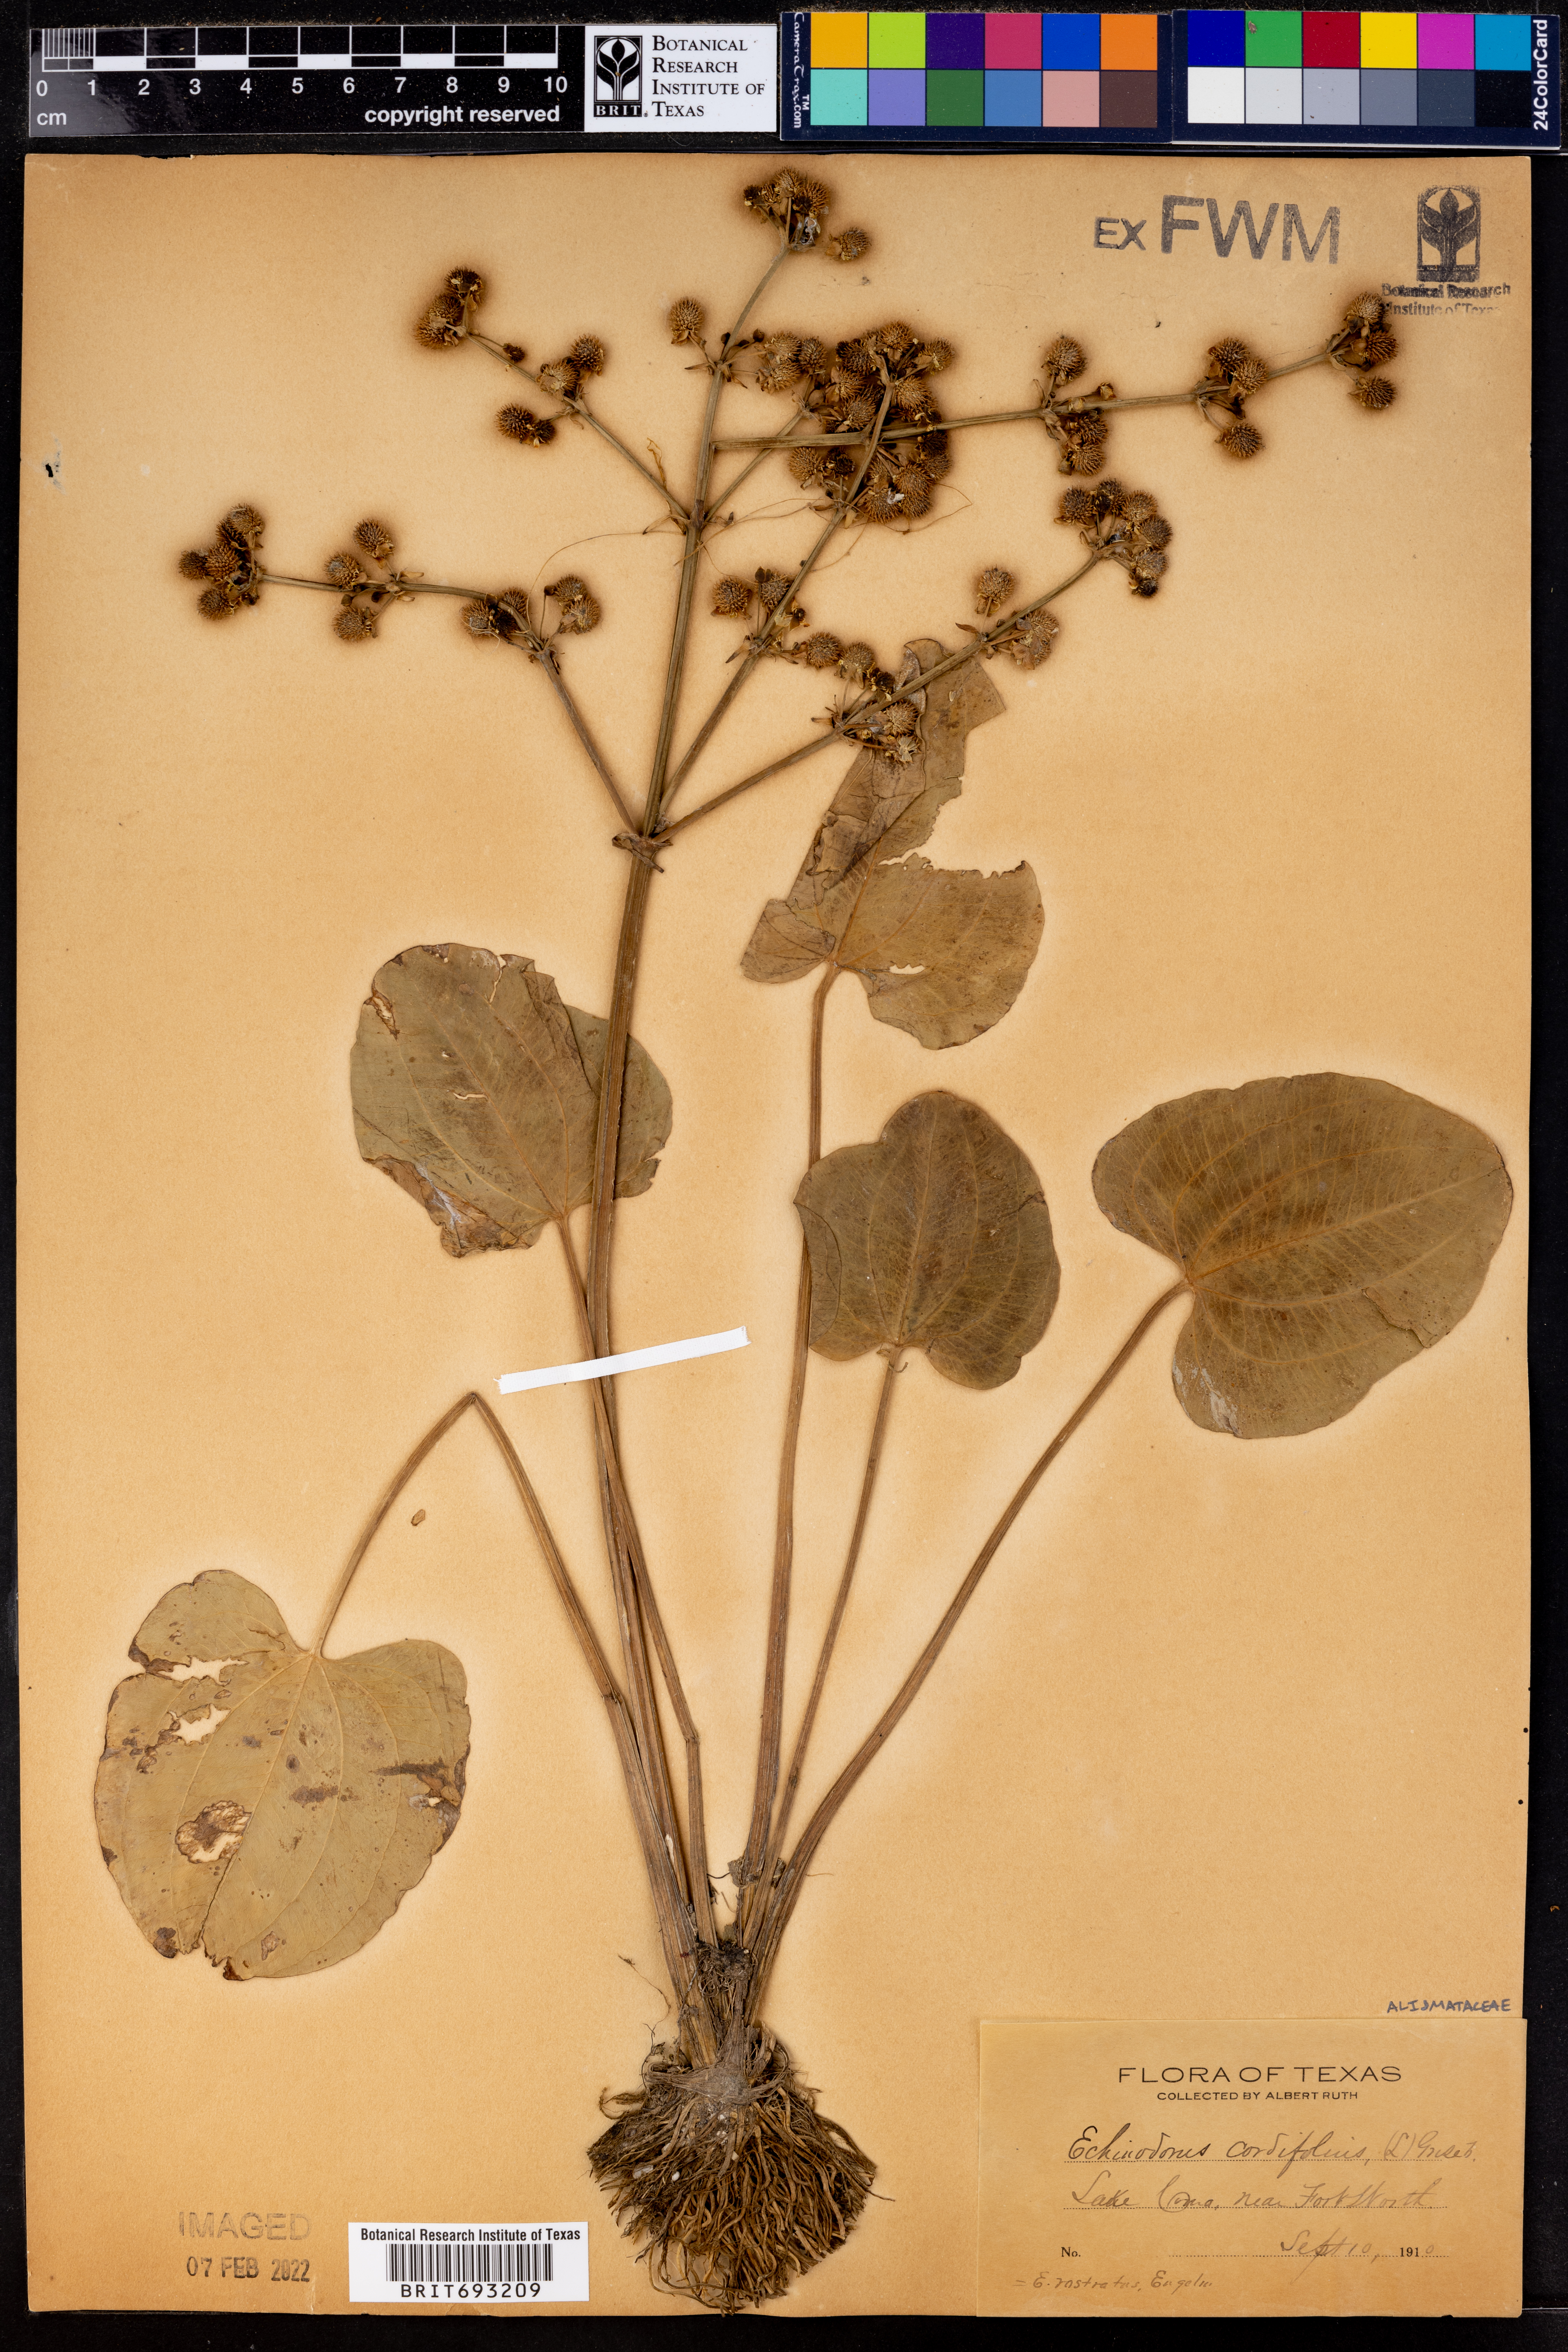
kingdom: Plantae
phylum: Tracheophyta
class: Liliopsida
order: Alismatales
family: Alismataceae
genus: Aquarius
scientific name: Aquarius cordifolius
